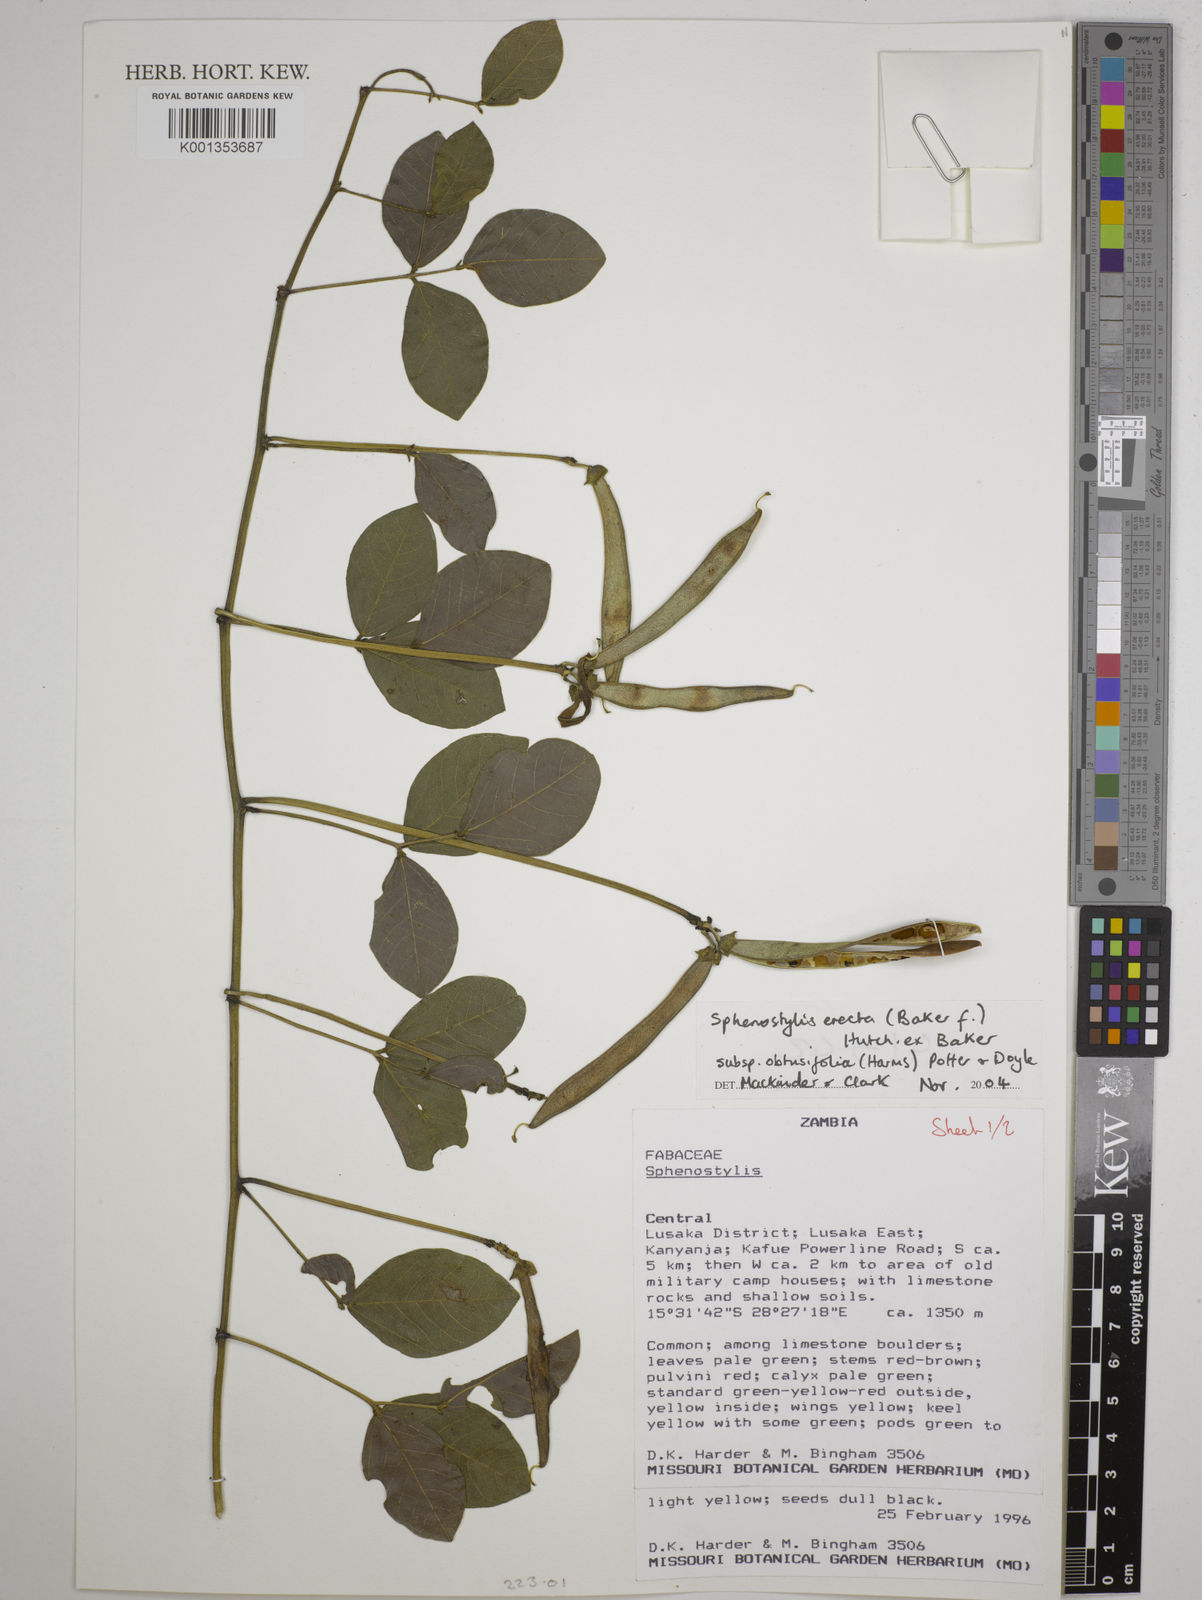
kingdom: Plantae
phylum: Tracheophyta
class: Magnoliopsida
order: Fabales
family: Fabaceae
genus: Sphenostylis
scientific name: Sphenostylis erecta
